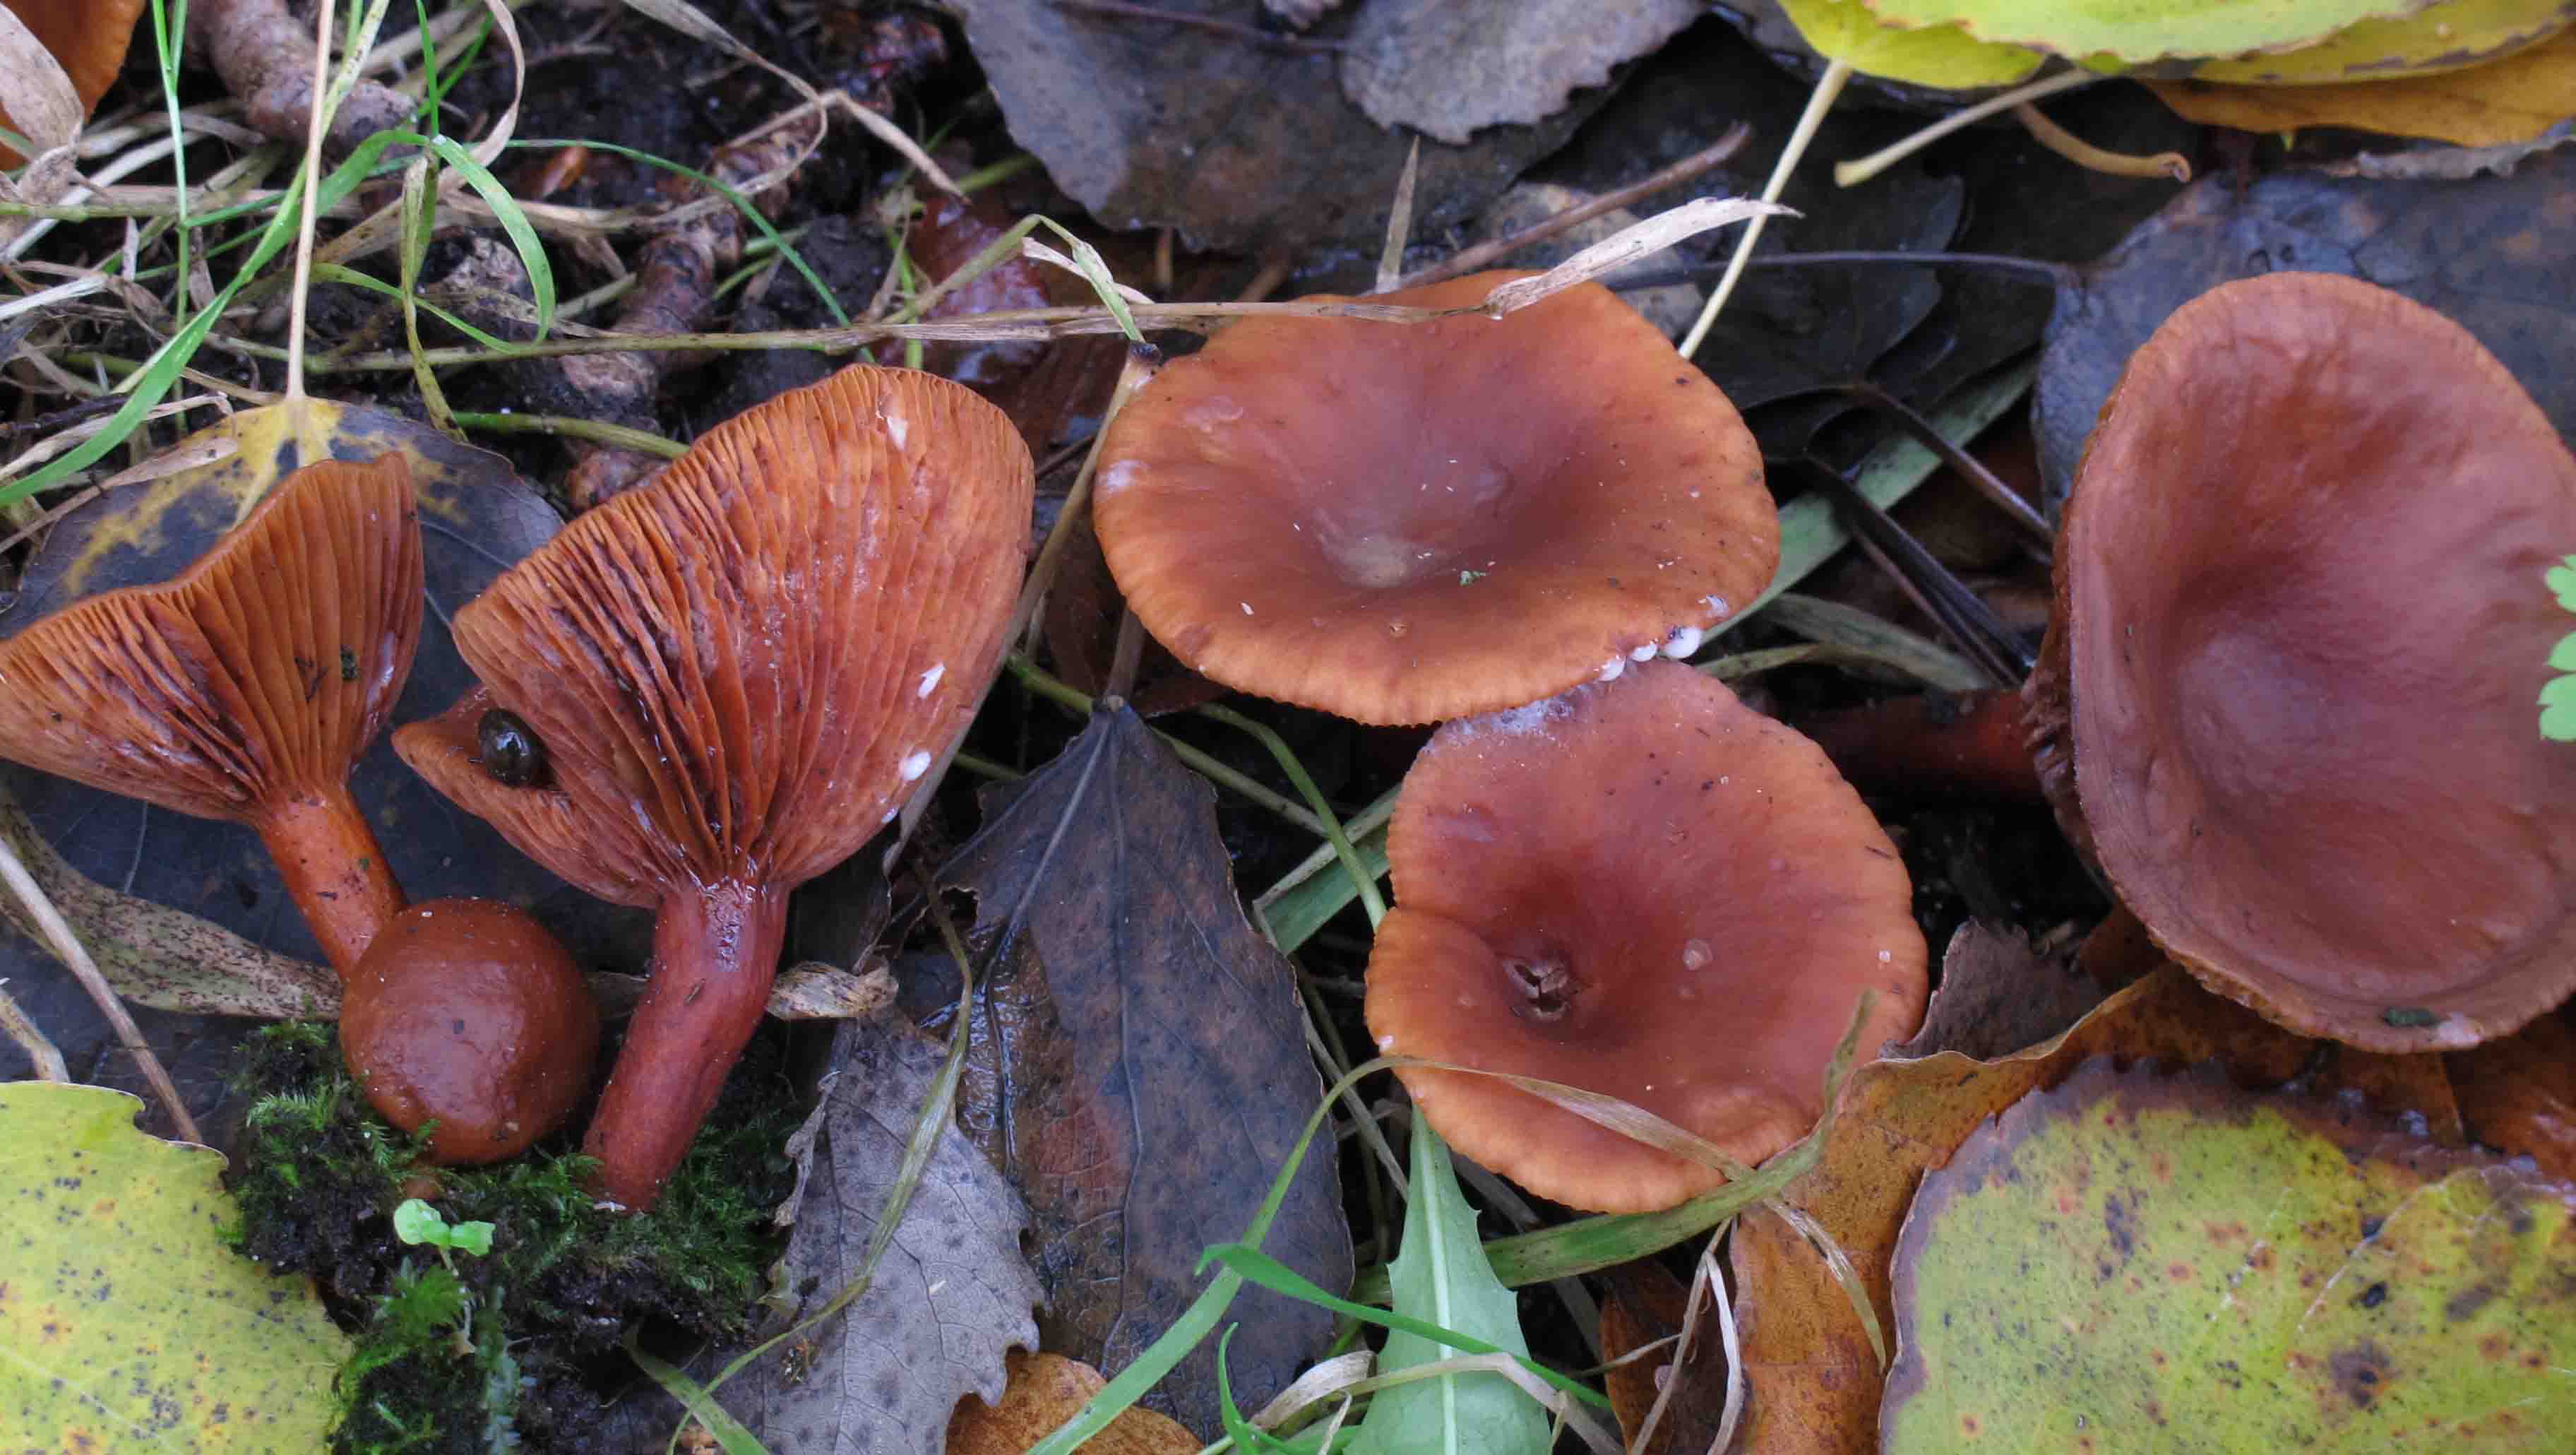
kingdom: Fungi
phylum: Basidiomycota
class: Agaricomycetes
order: Russulales
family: Russulaceae
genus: Lactarius
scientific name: Lactarius lacunarum
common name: sump-mælkehat
